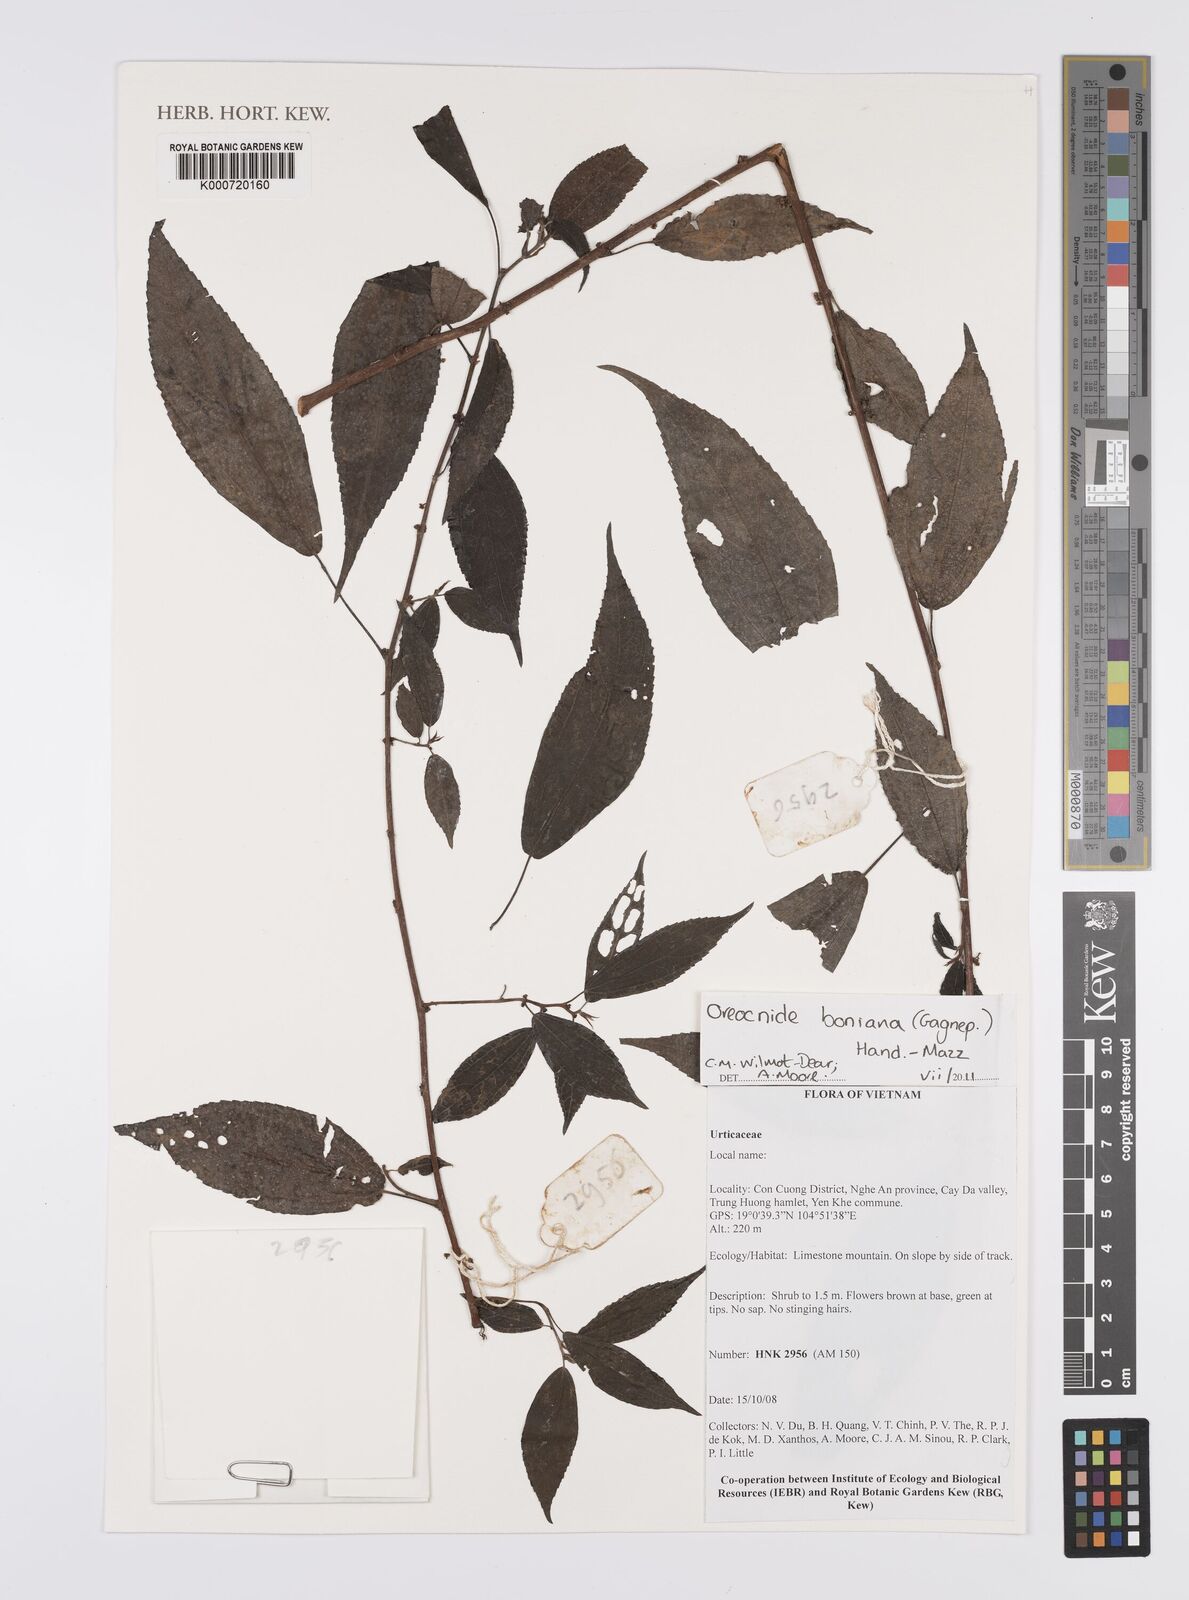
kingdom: Plantae
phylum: Tracheophyta
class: Magnoliopsida
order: Rosales
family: Urticaceae
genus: Oreocnide
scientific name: Oreocnide boniana
